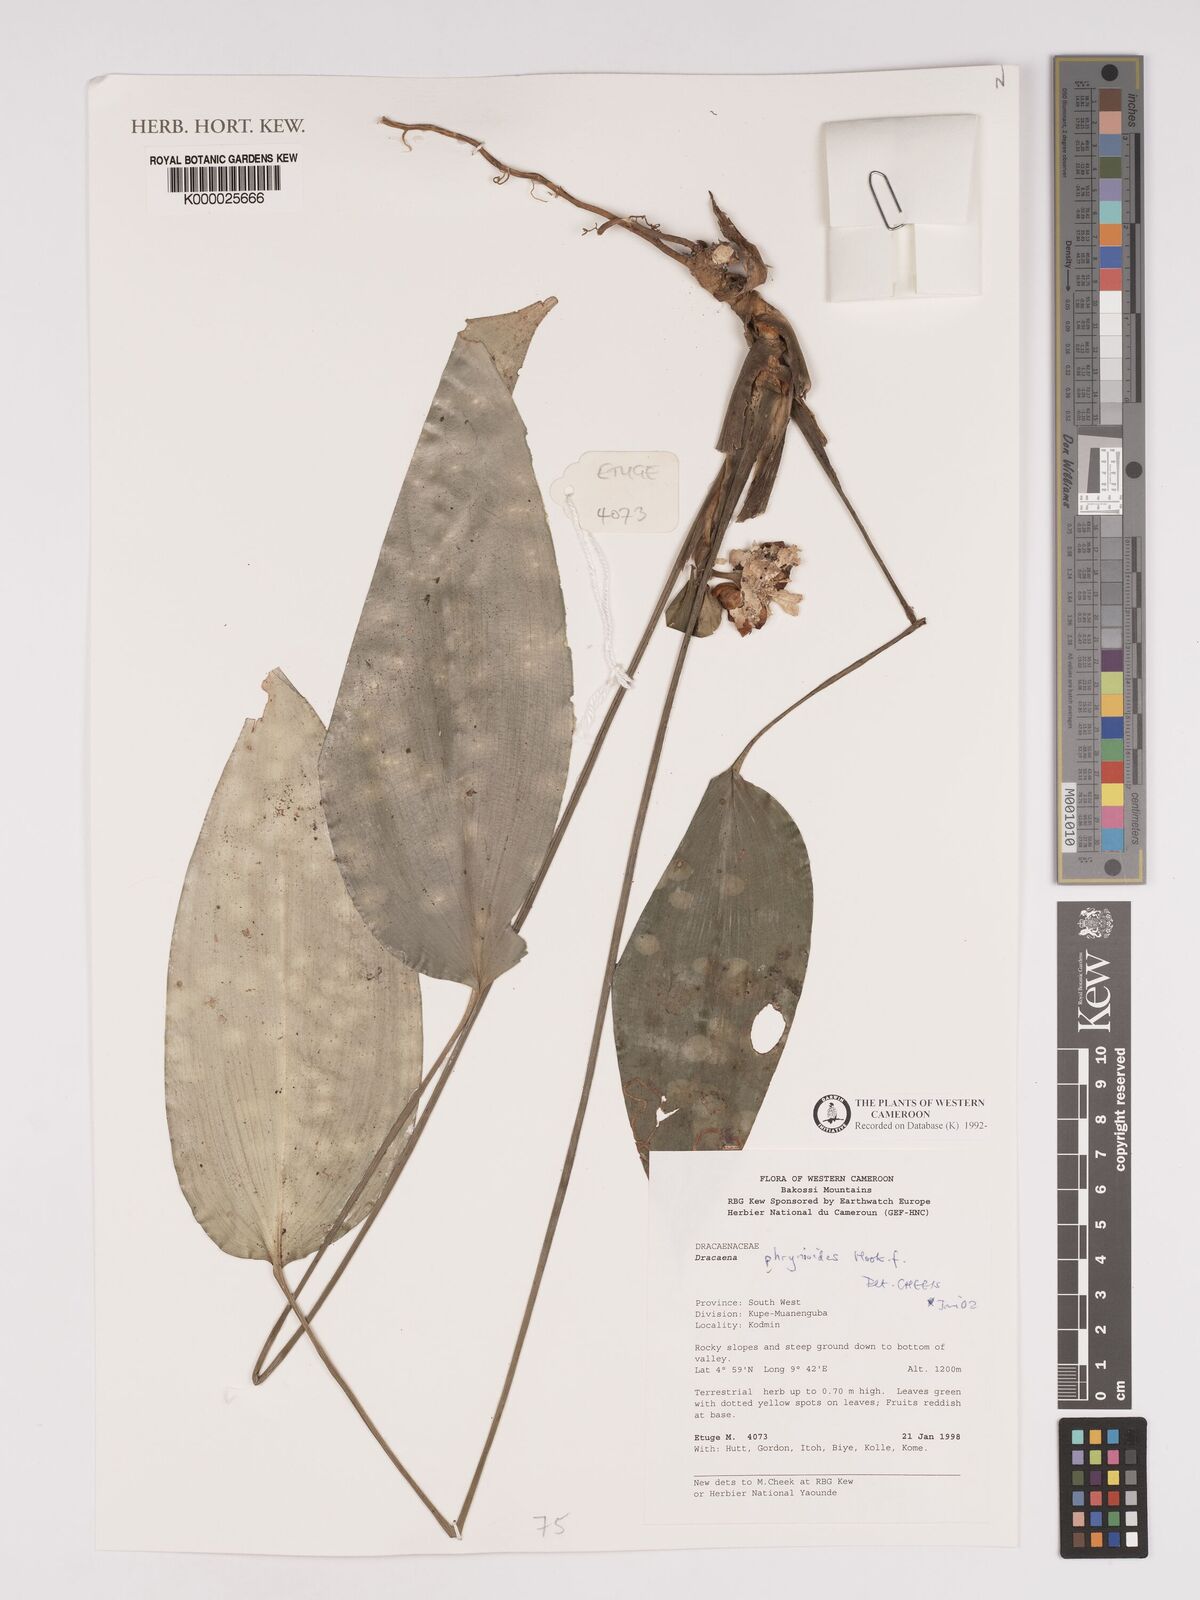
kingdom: Plantae
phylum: Tracheophyta
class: Liliopsida
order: Asparagales
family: Asparagaceae
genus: Dracaena
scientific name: Dracaena phrynioides
